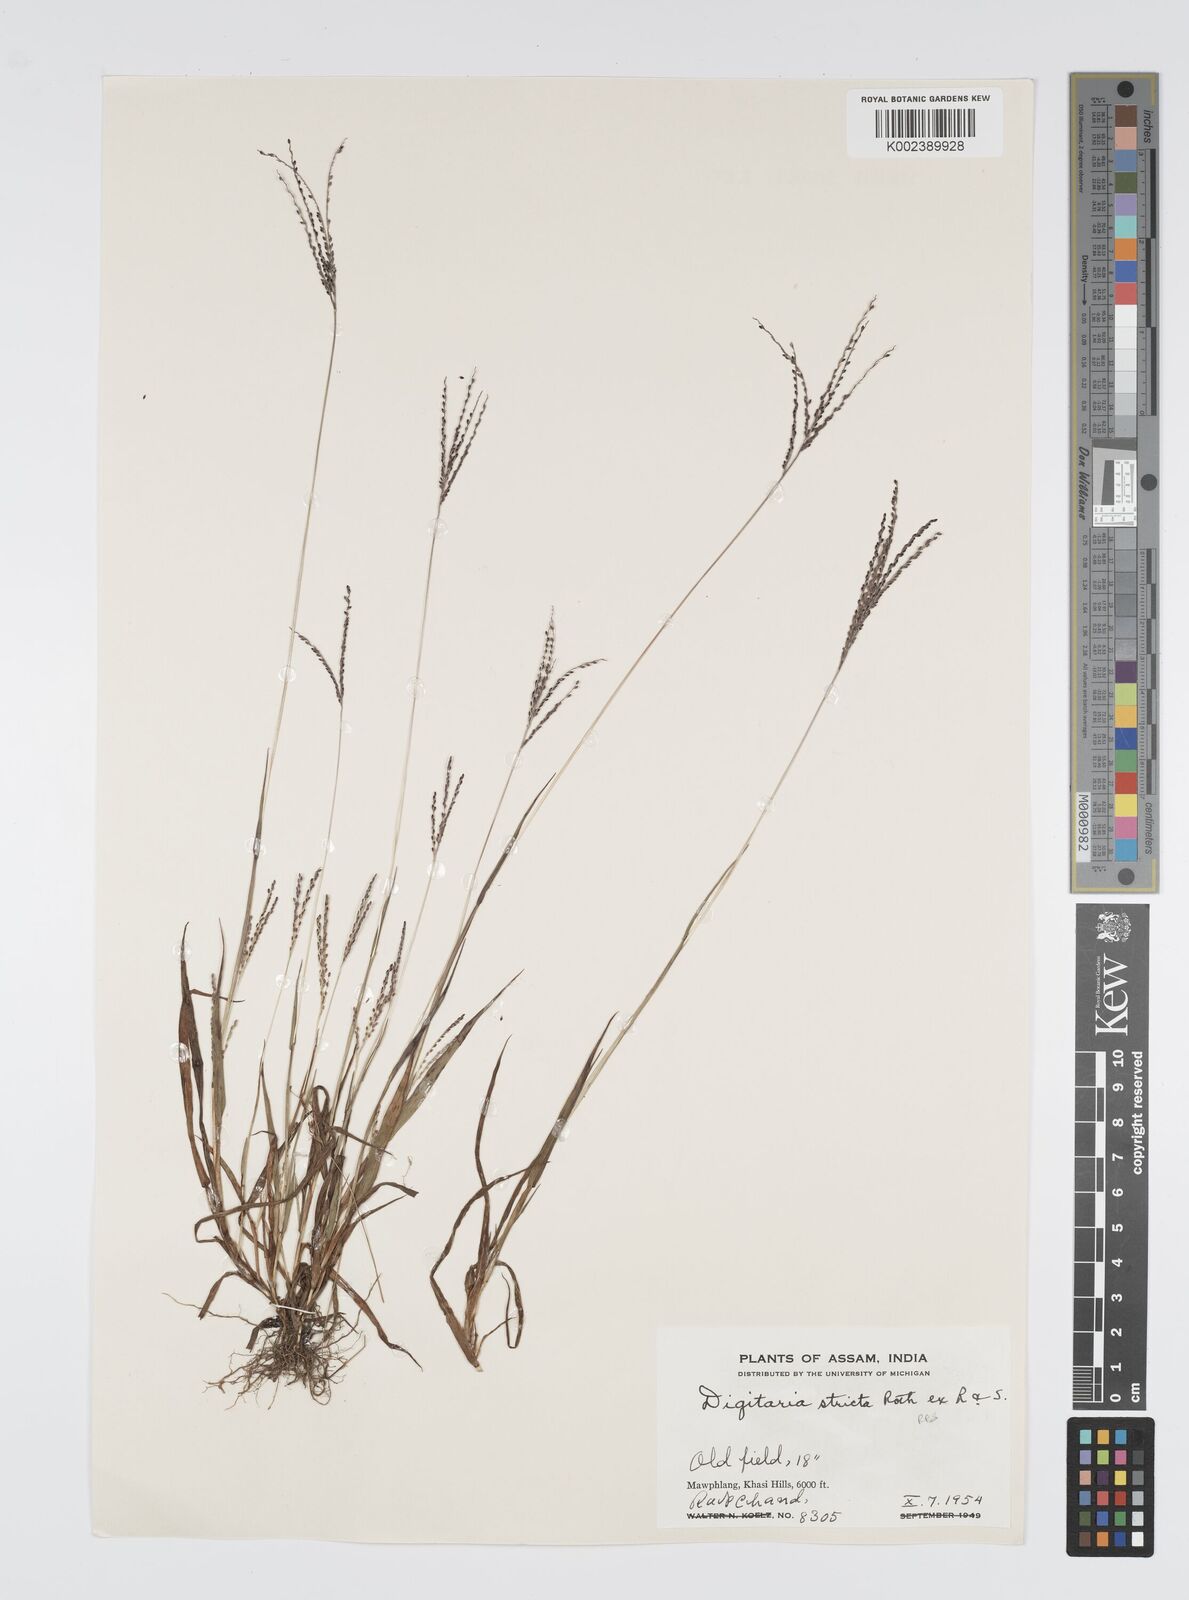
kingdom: Plantae
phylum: Tracheophyta
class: Liliopsida
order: Poales
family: Poaceae
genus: Digitaria
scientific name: Digitaria stricta
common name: Crabgrass
